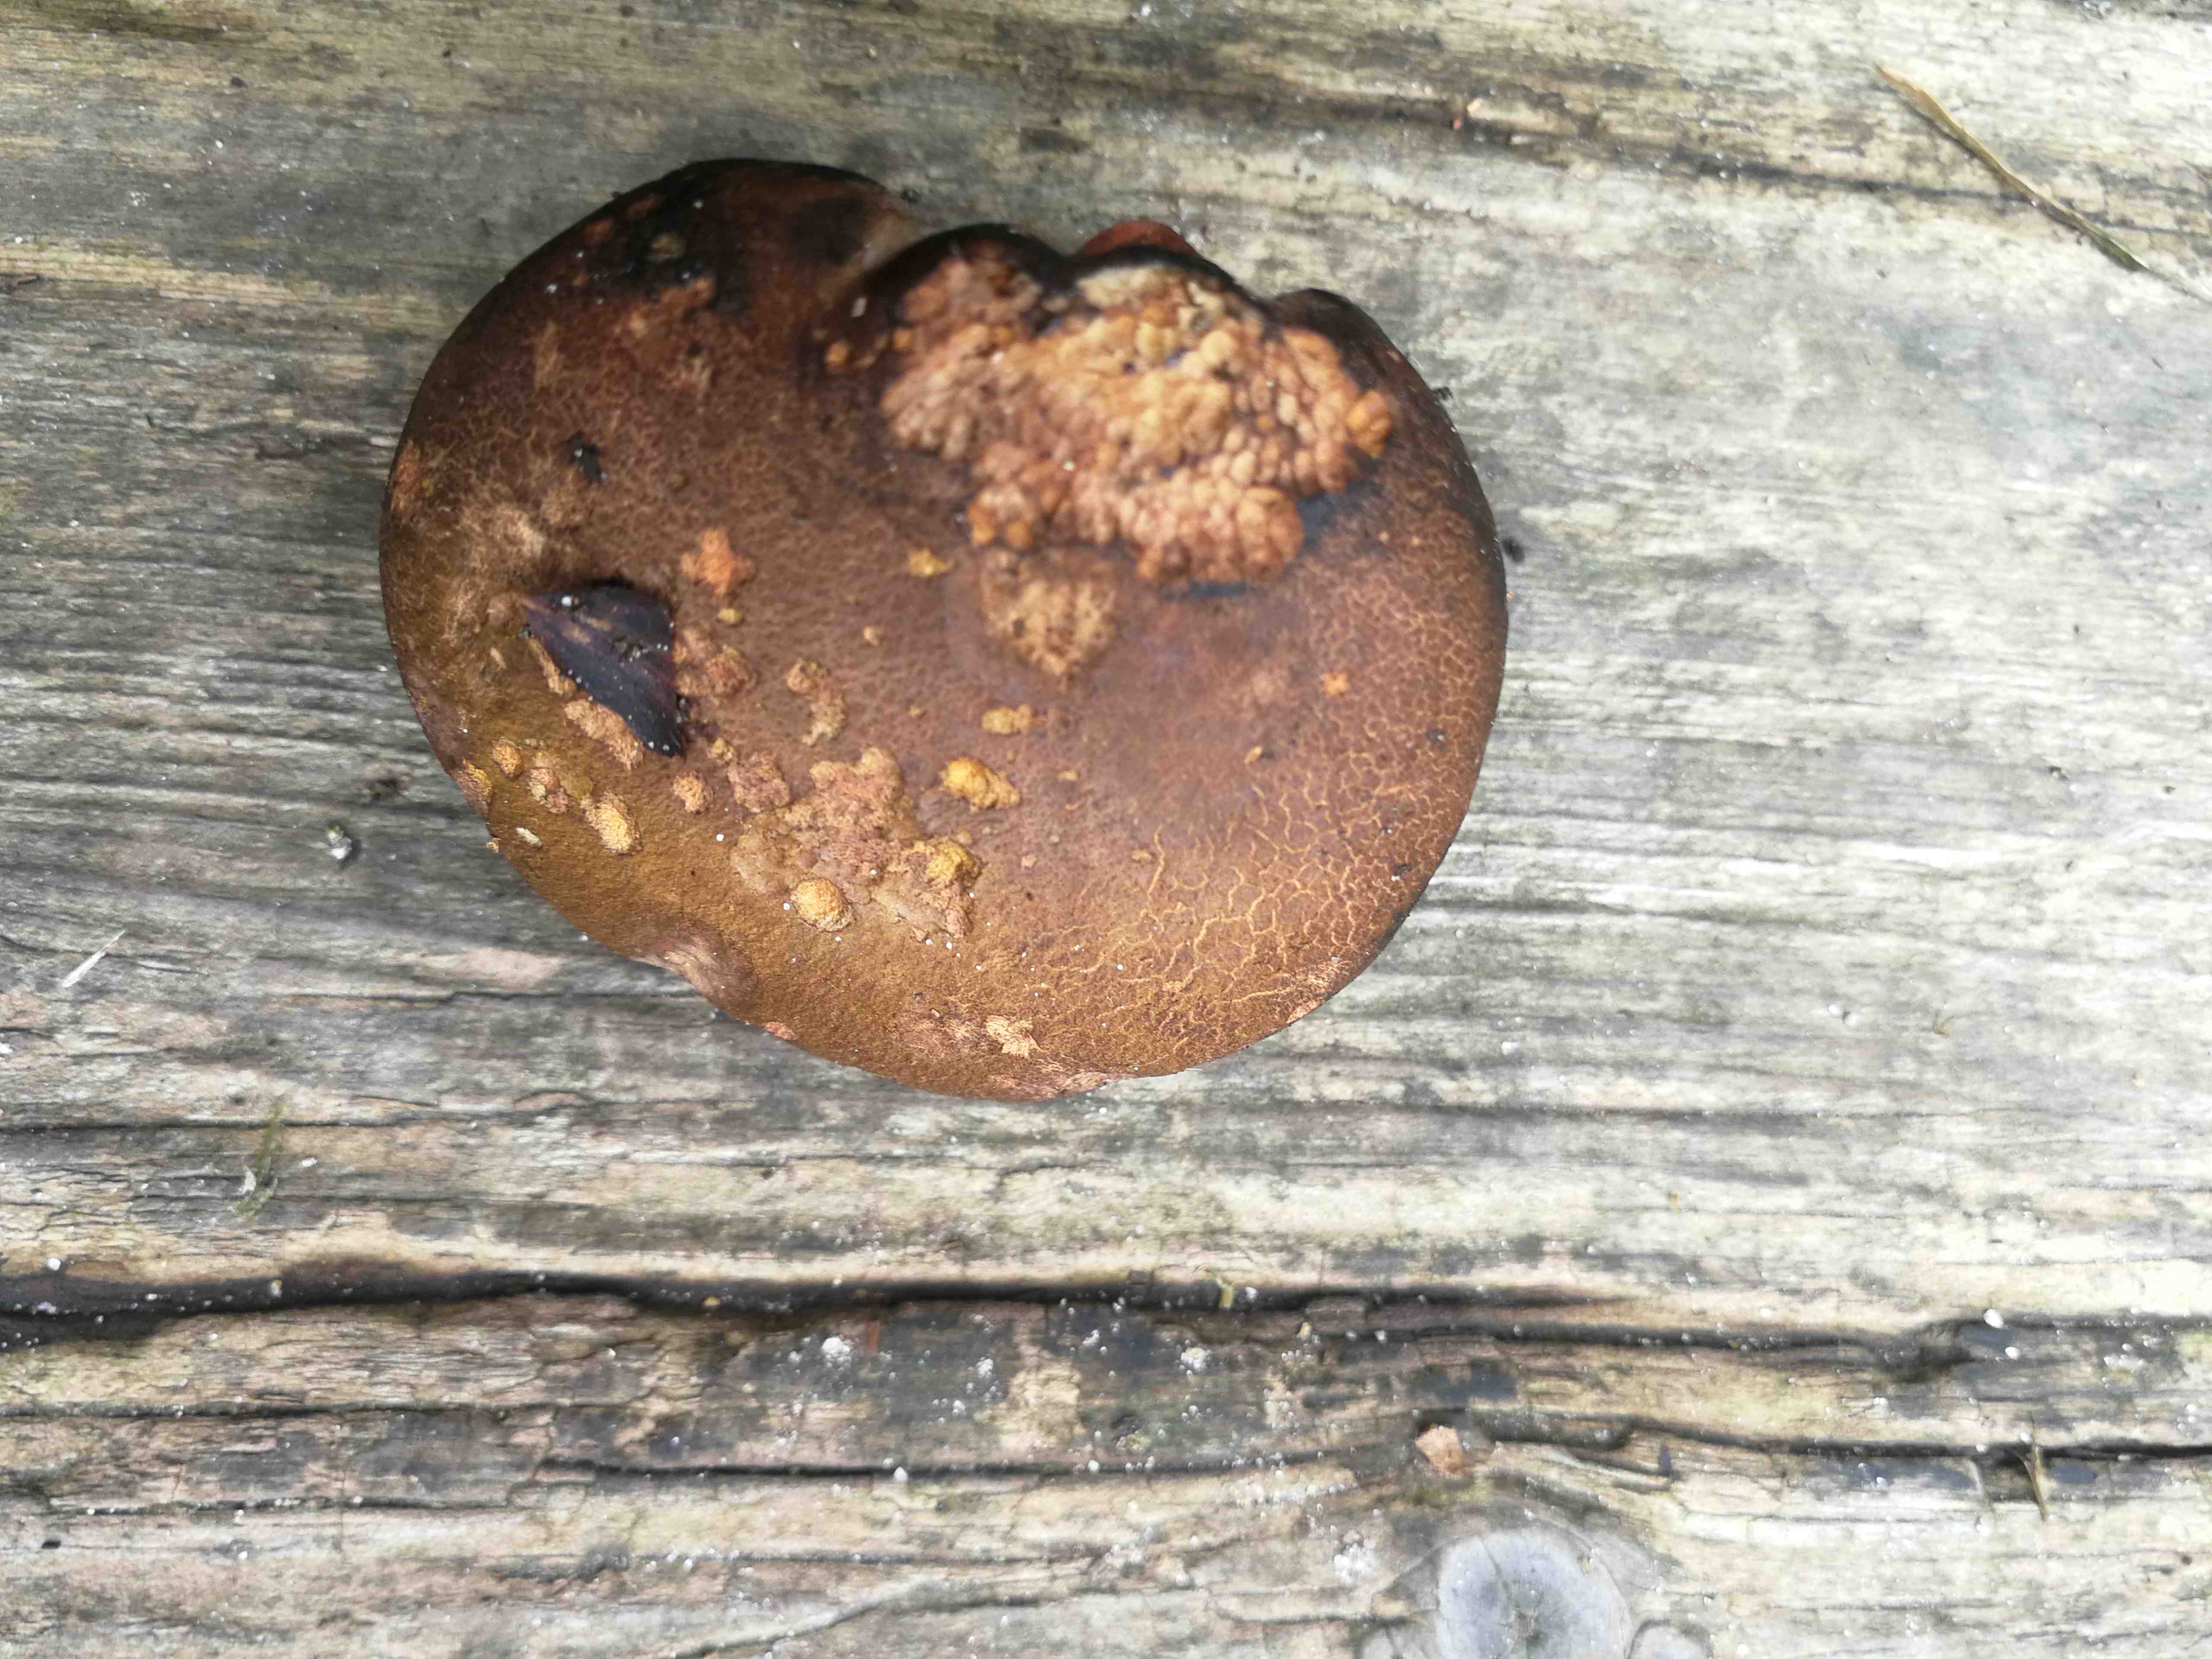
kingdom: Fungi
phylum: Basidiomycota
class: Agaricomycetes
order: Boletales
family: Boletaceae
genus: Cyanoboletus
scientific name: Cyanoboletus pulverulentus
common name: sortblånende rørhat
